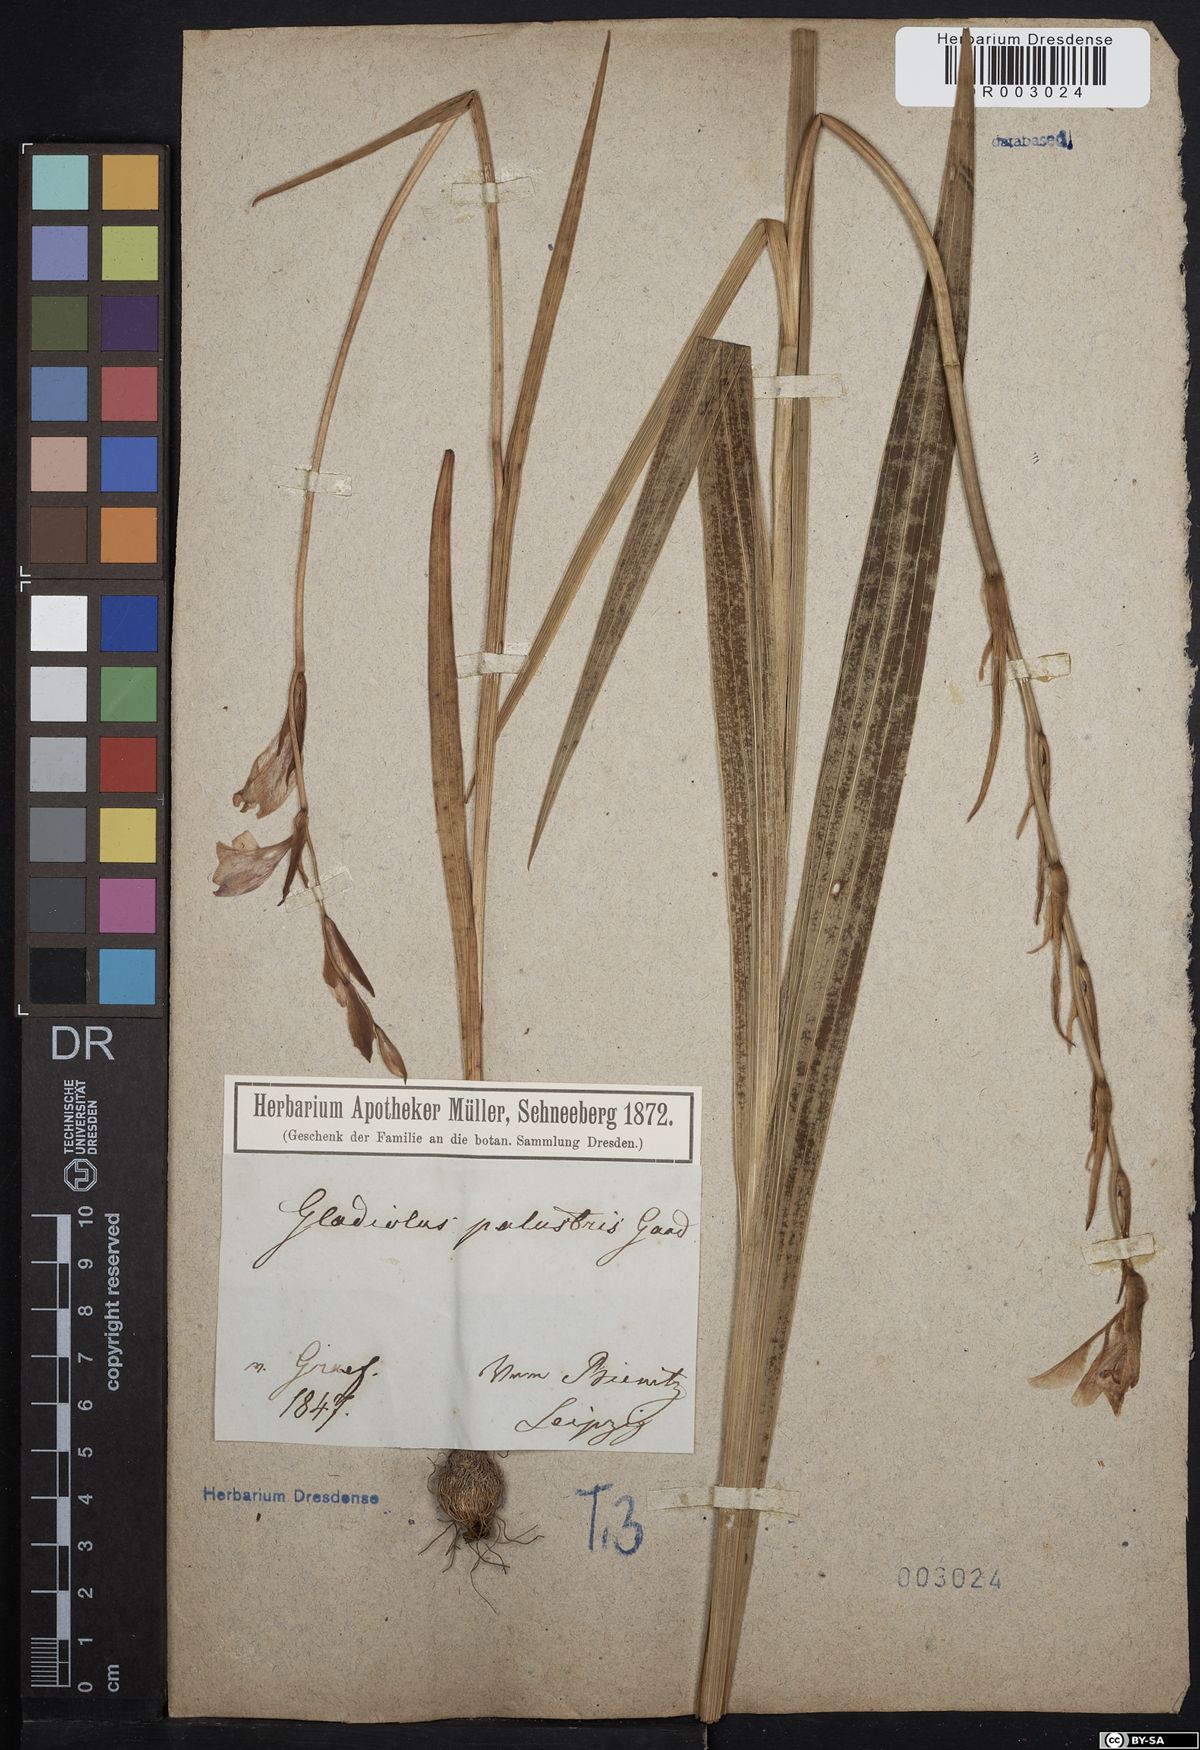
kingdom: Plantae
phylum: Tracheophyta
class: Liliopsida
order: Asparagales
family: Iridaceae
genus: Gladiolus
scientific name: Gladiolus palustris
